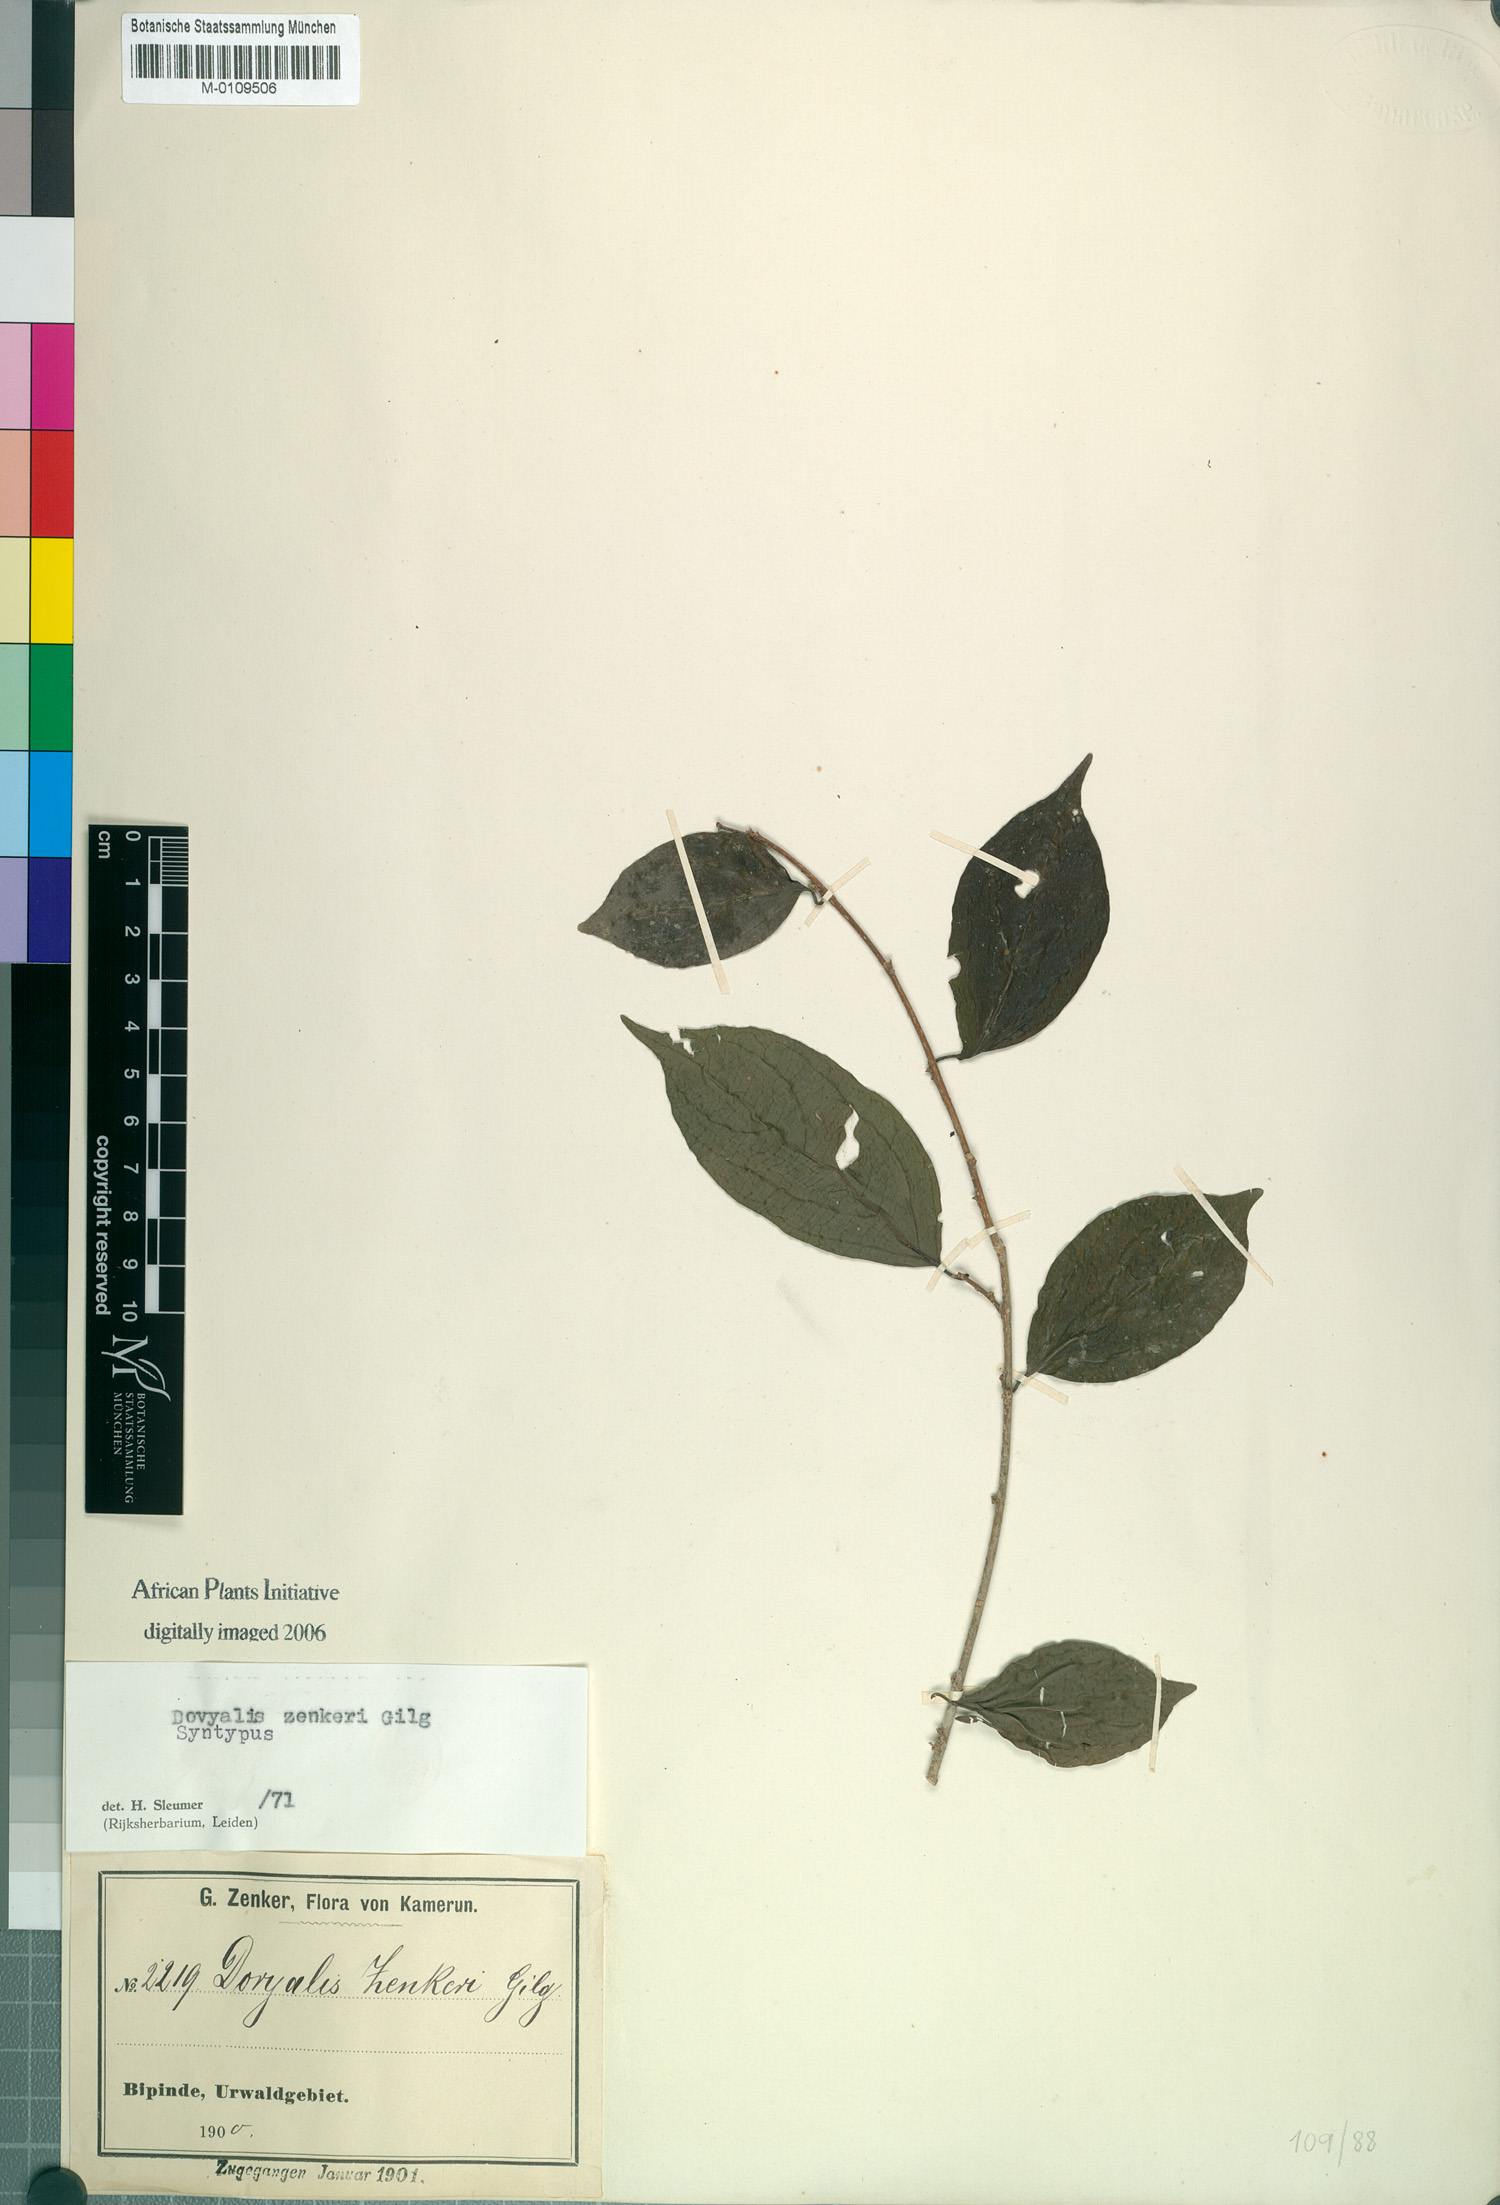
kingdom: Plantae
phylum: Tracheophyta
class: Magnoliopsida
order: Malpighiales
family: Salicaceae
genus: Dovyalis
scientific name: Dovyalis zenkeri
